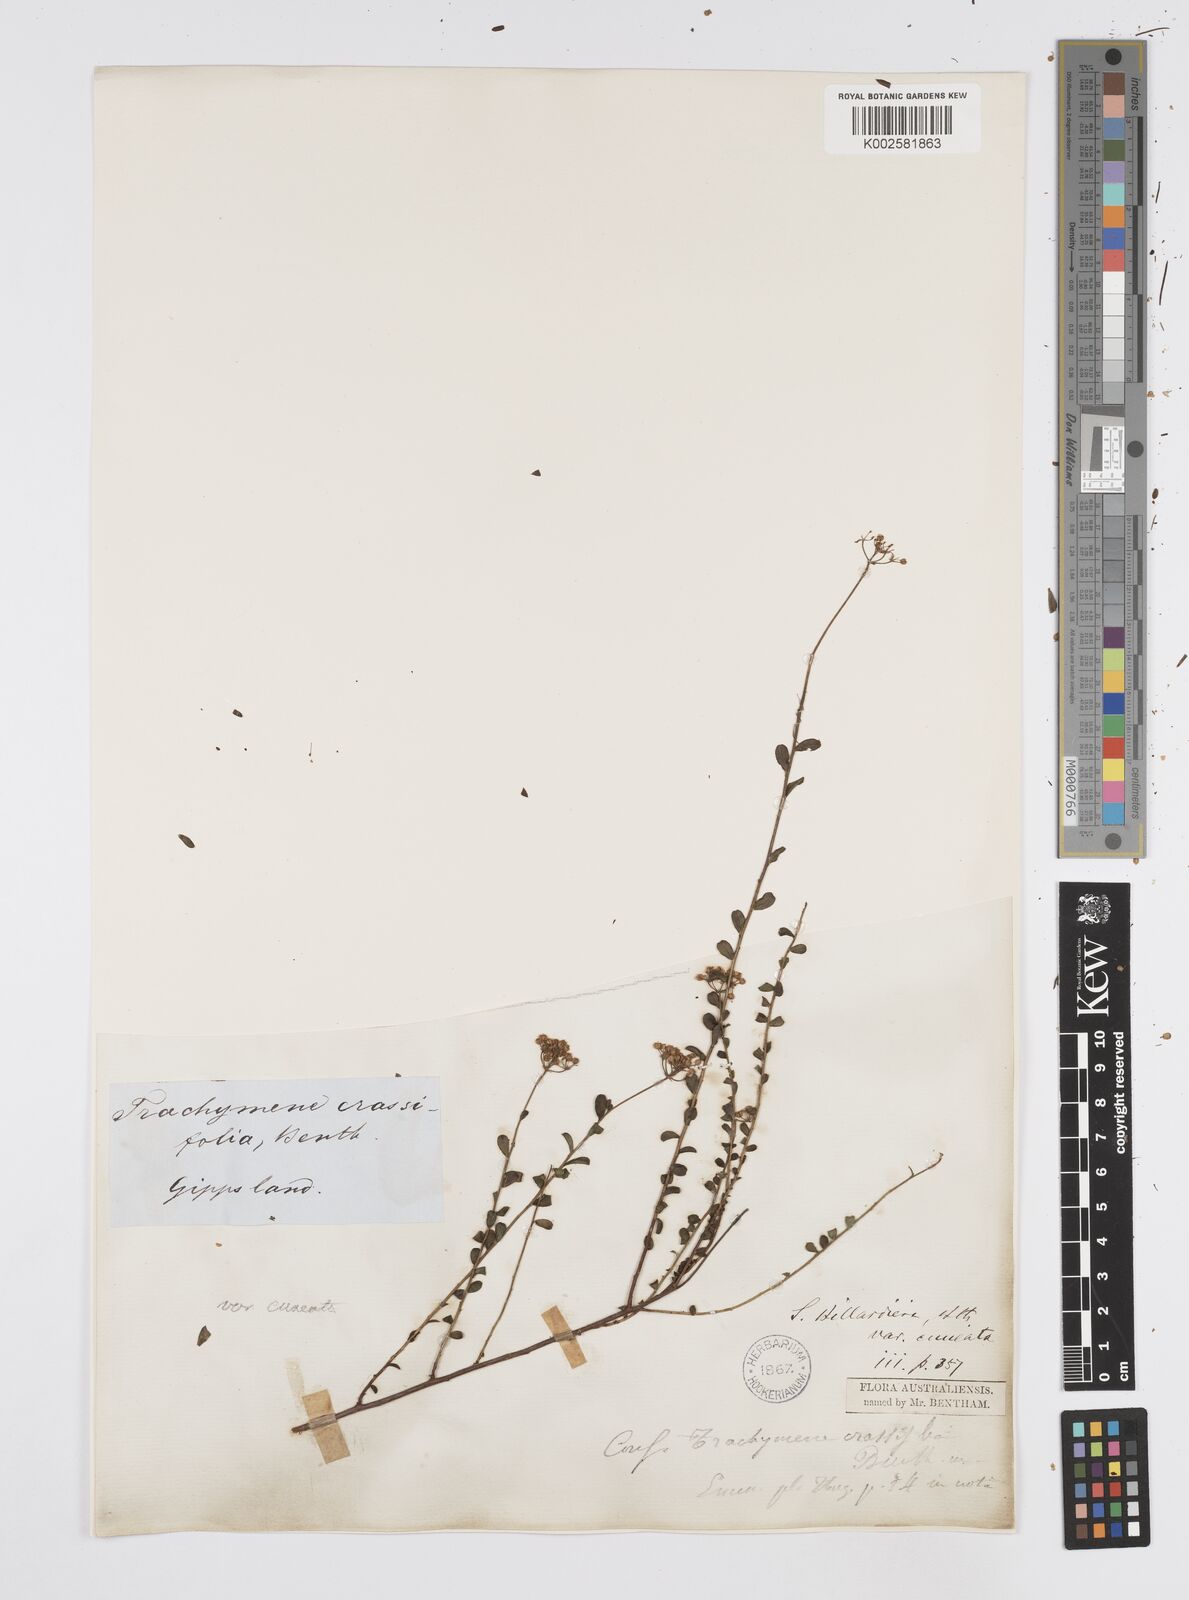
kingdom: Plantae
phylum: Tracheophyta
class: Magnoliopsida
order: Apiales
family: Apiaceae
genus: Platysace
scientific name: Platysace lanceolata
